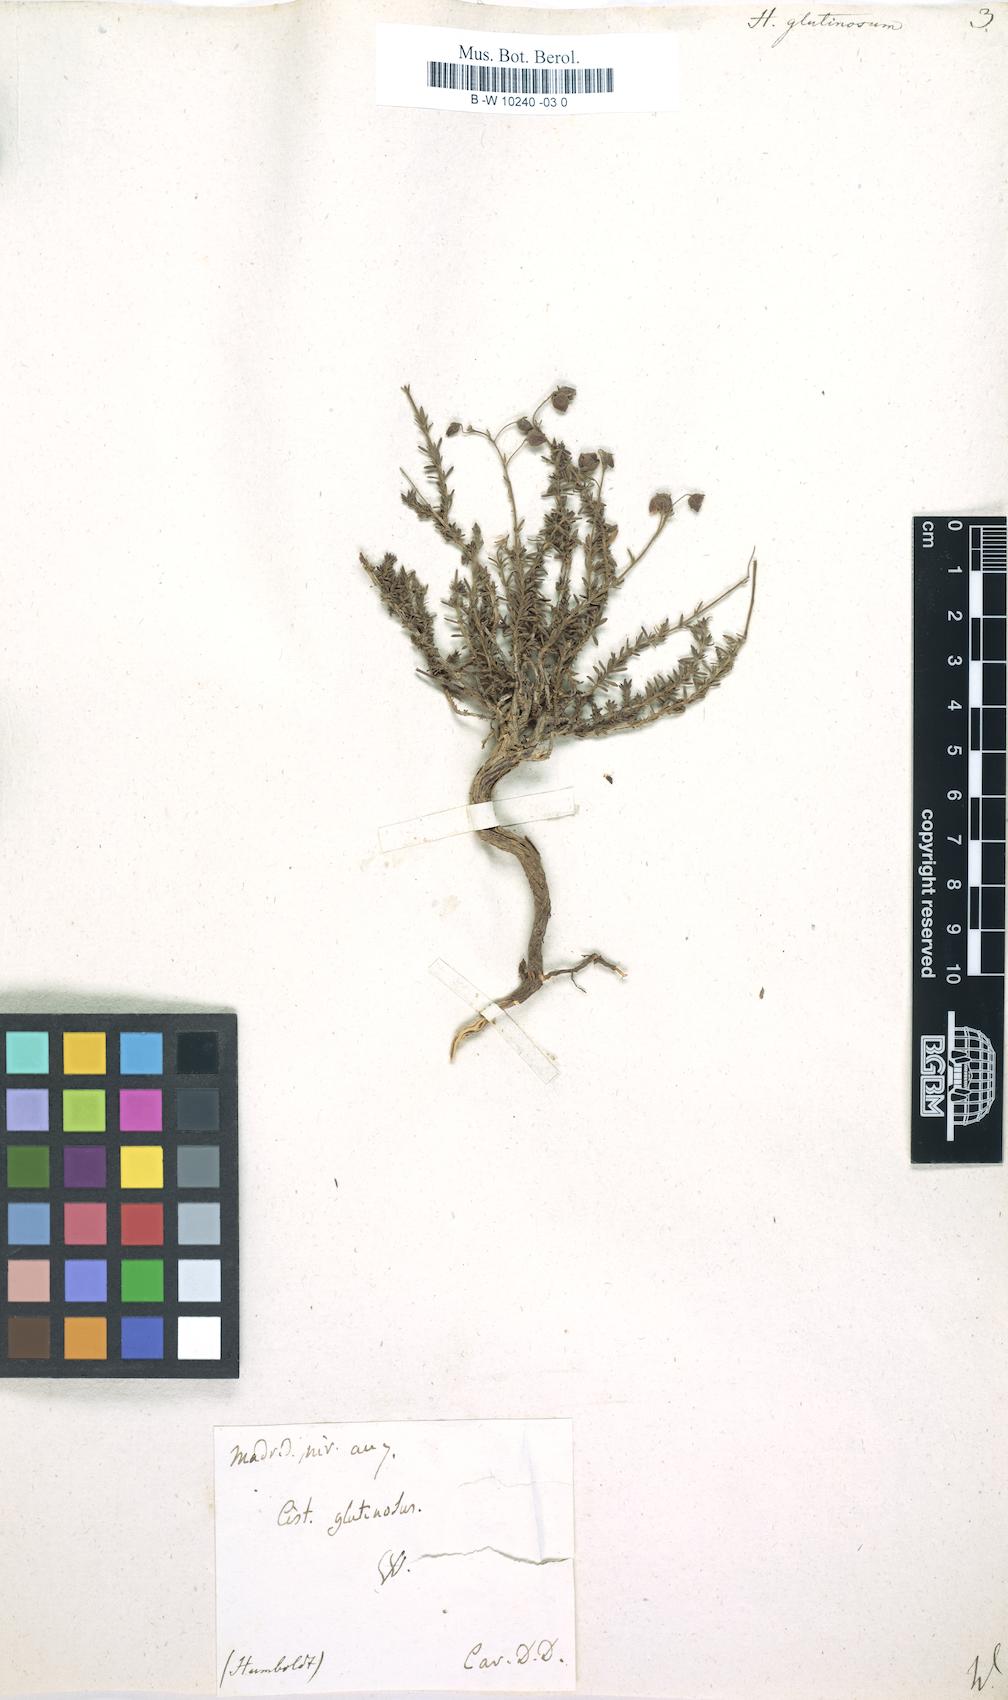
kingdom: Plantae
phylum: Tracheophyta
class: Magnoliopsida
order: Malvales
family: Cistaceae
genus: Fumana
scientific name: Fumana thymifolia
